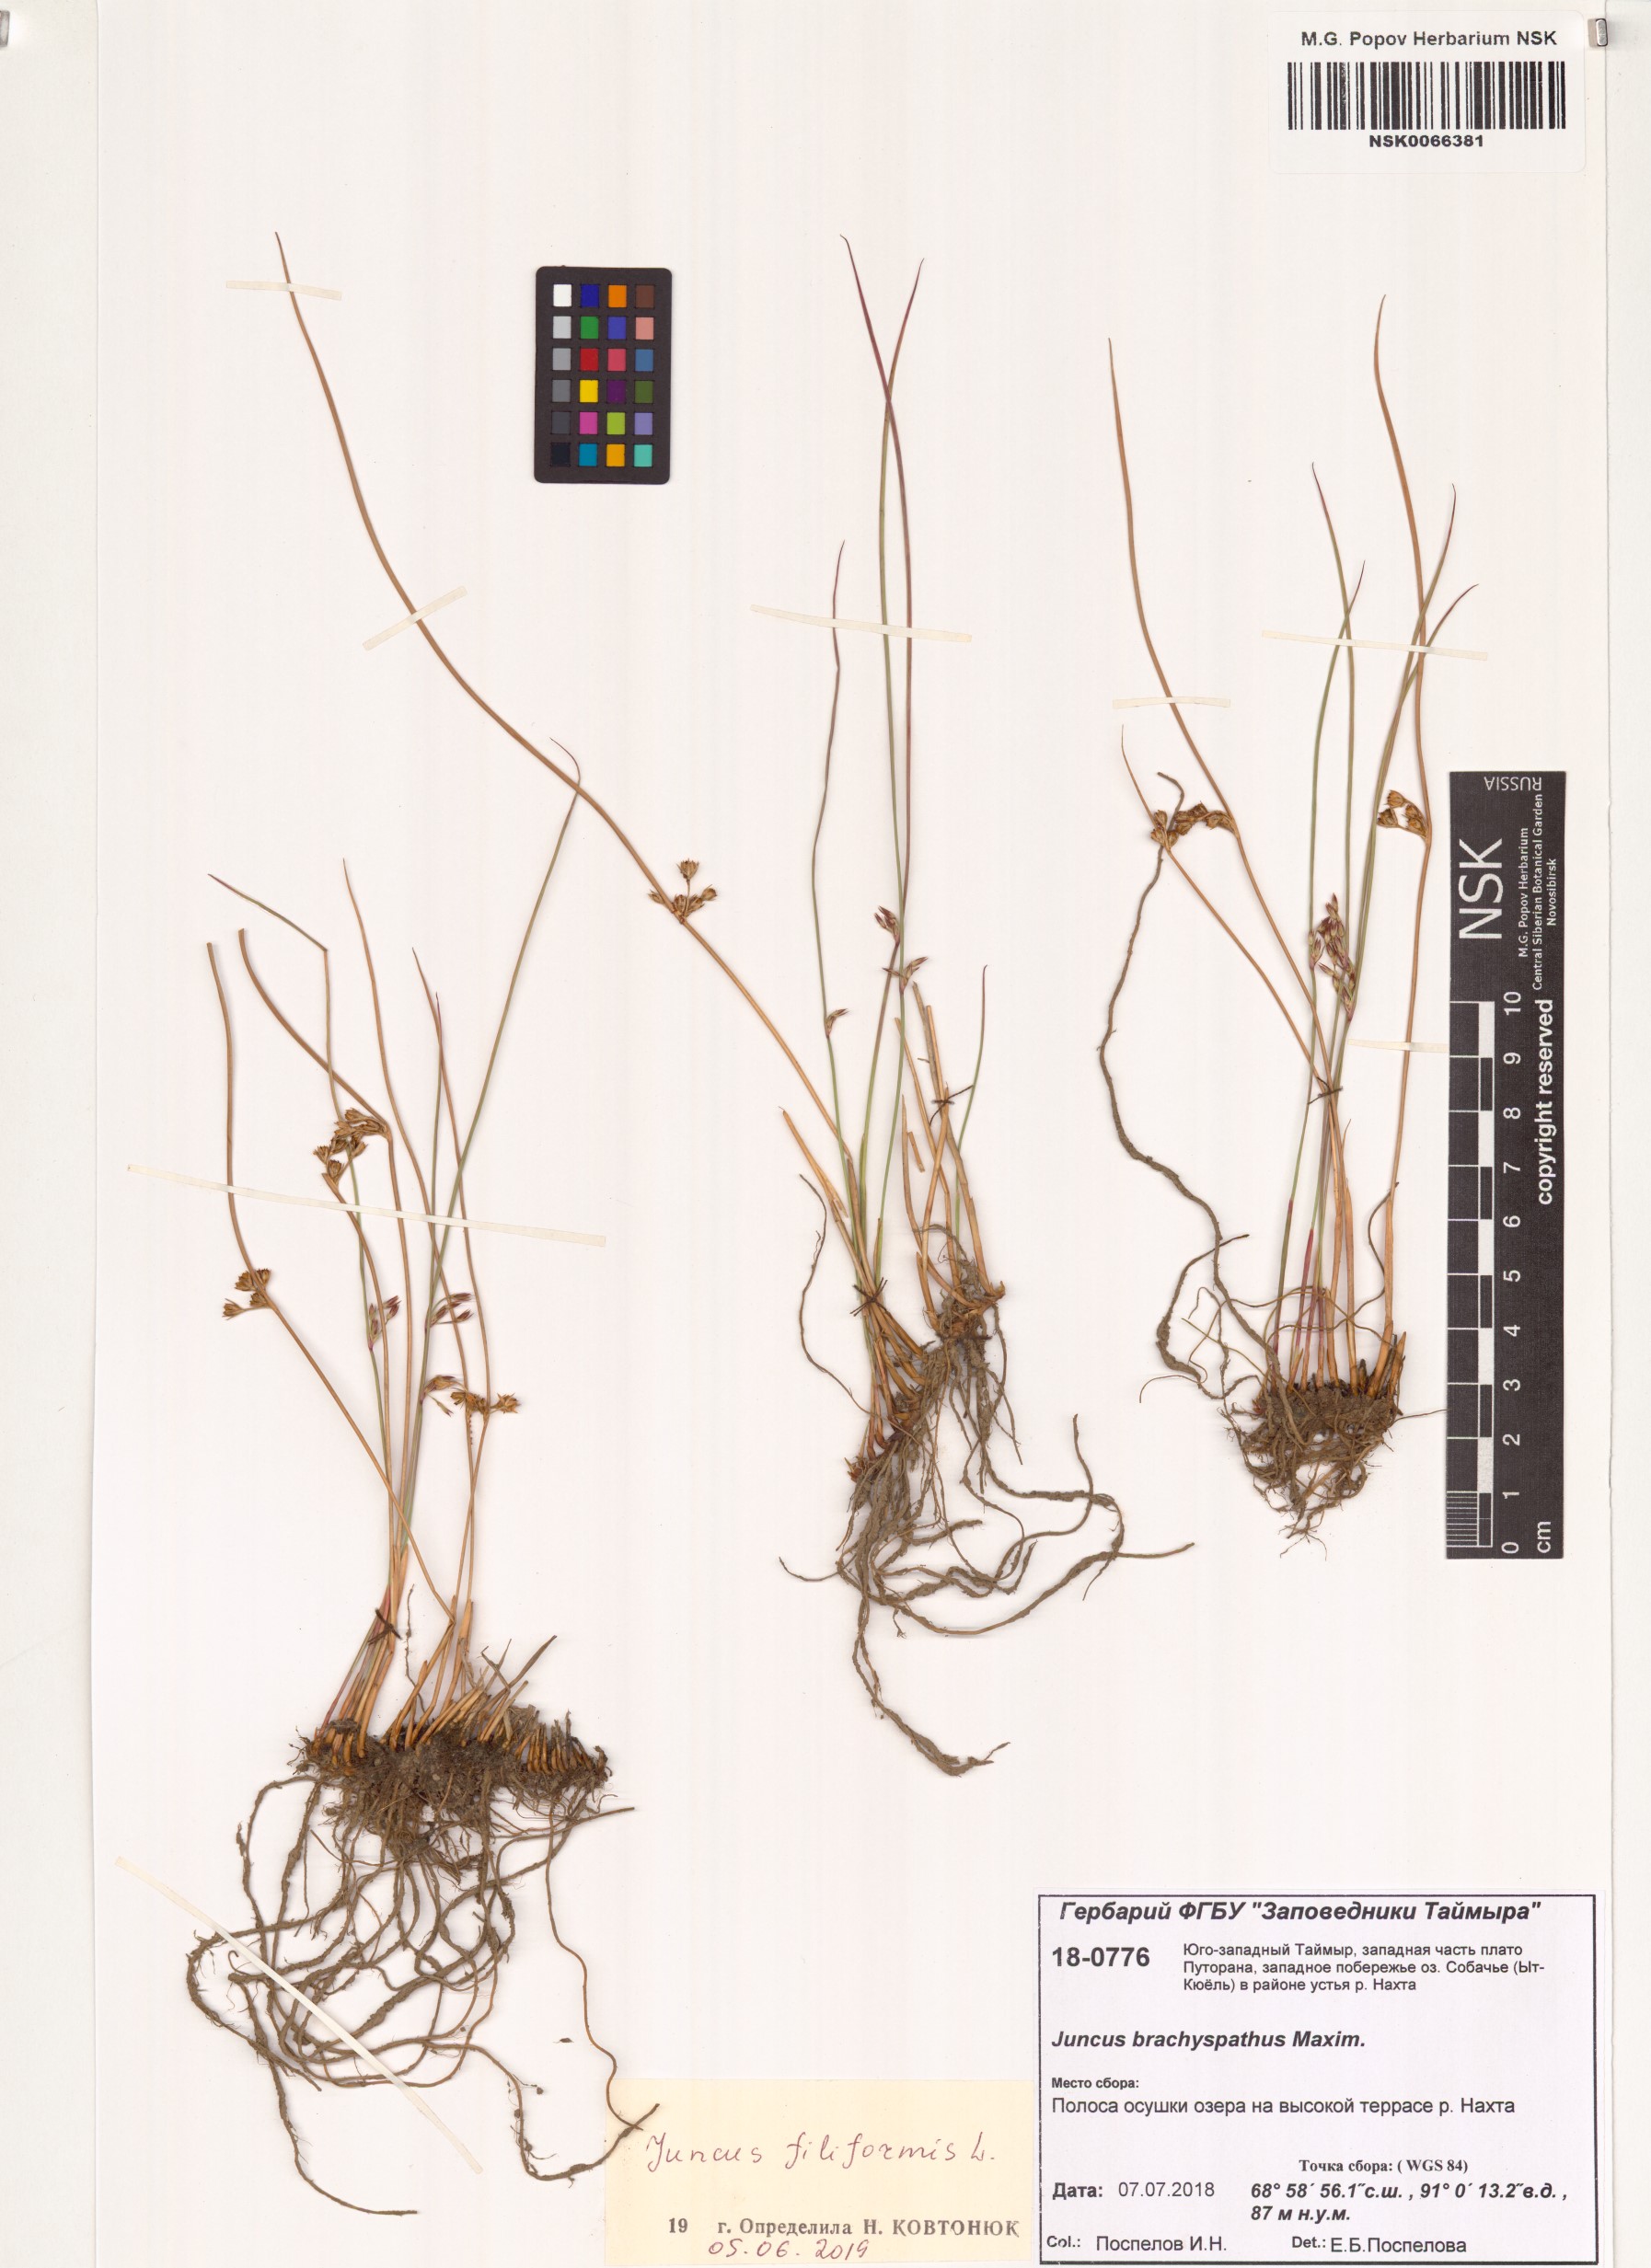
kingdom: Plantae
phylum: Tracheophyta
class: Liliopsida
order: Poales
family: Juncaceae
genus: Juncus
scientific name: Juncus filiformis
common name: Thread rush
